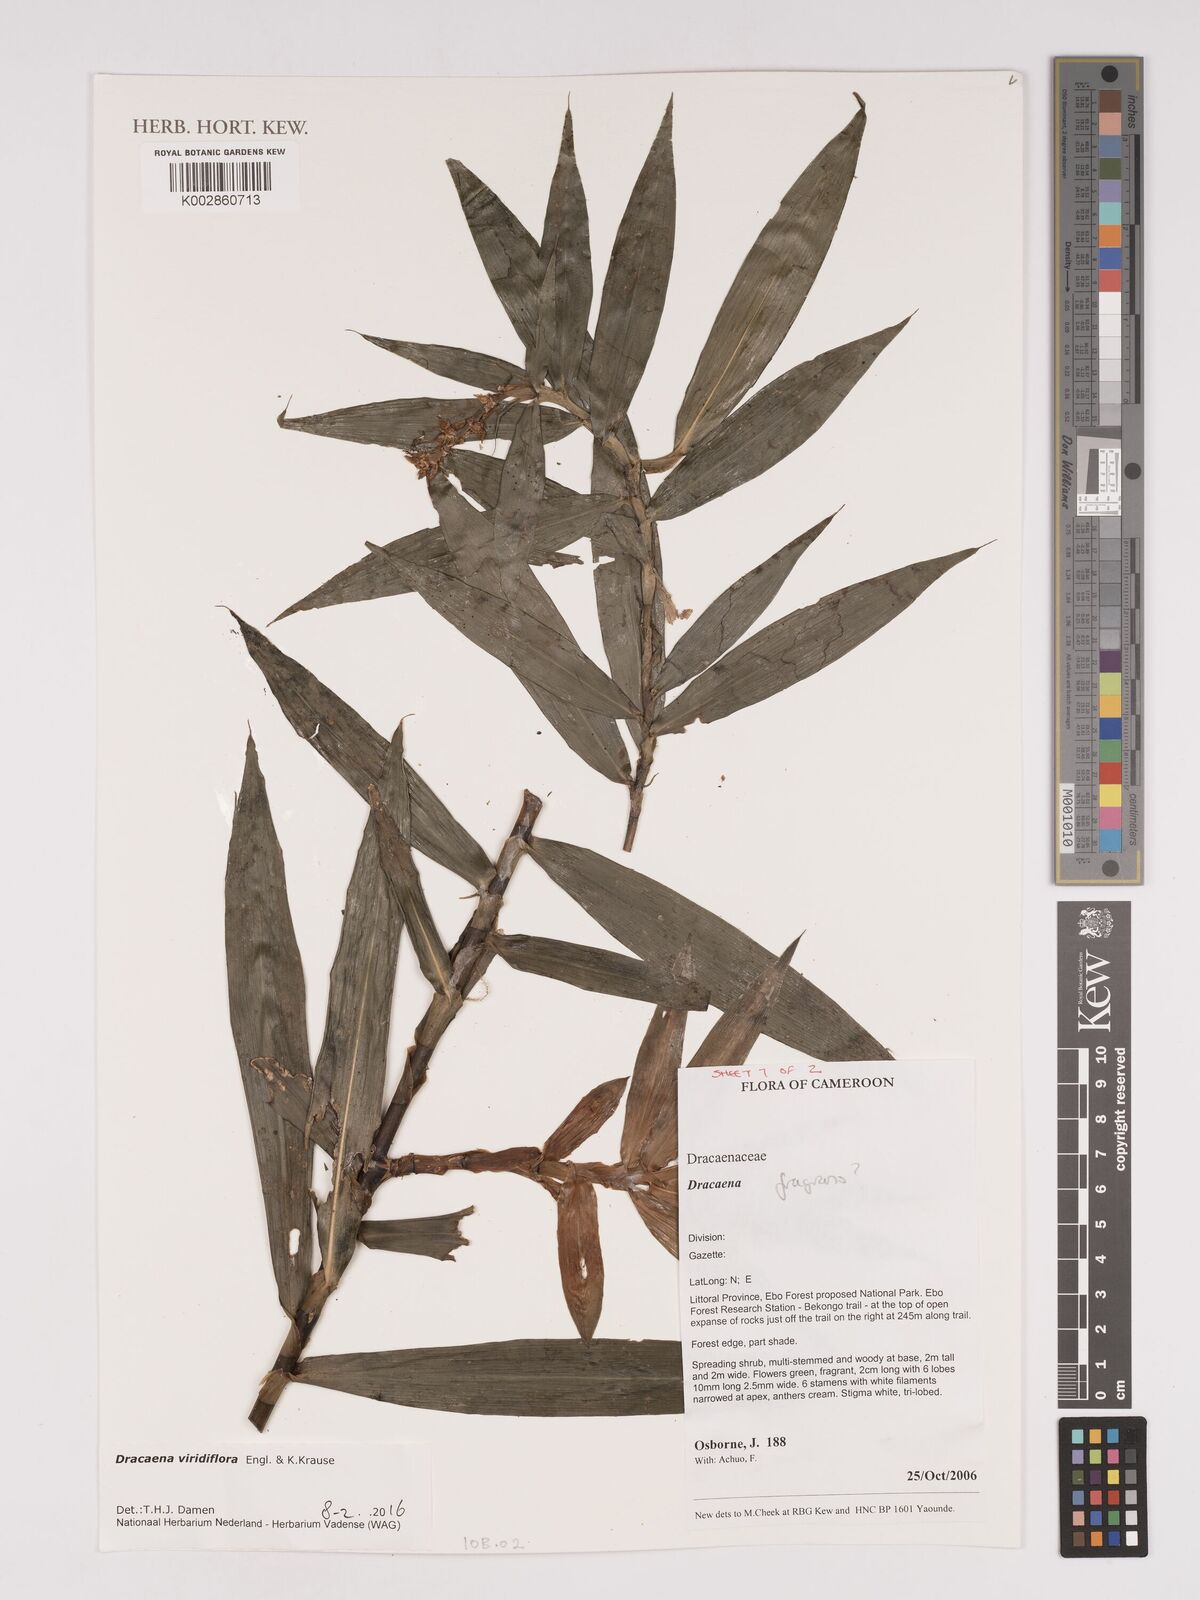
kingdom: Plantae
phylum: Tracheophyta
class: Liliopsida
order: Asparagales
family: Asparagaceae
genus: Dracaena
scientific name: Dracaena viridiflora
